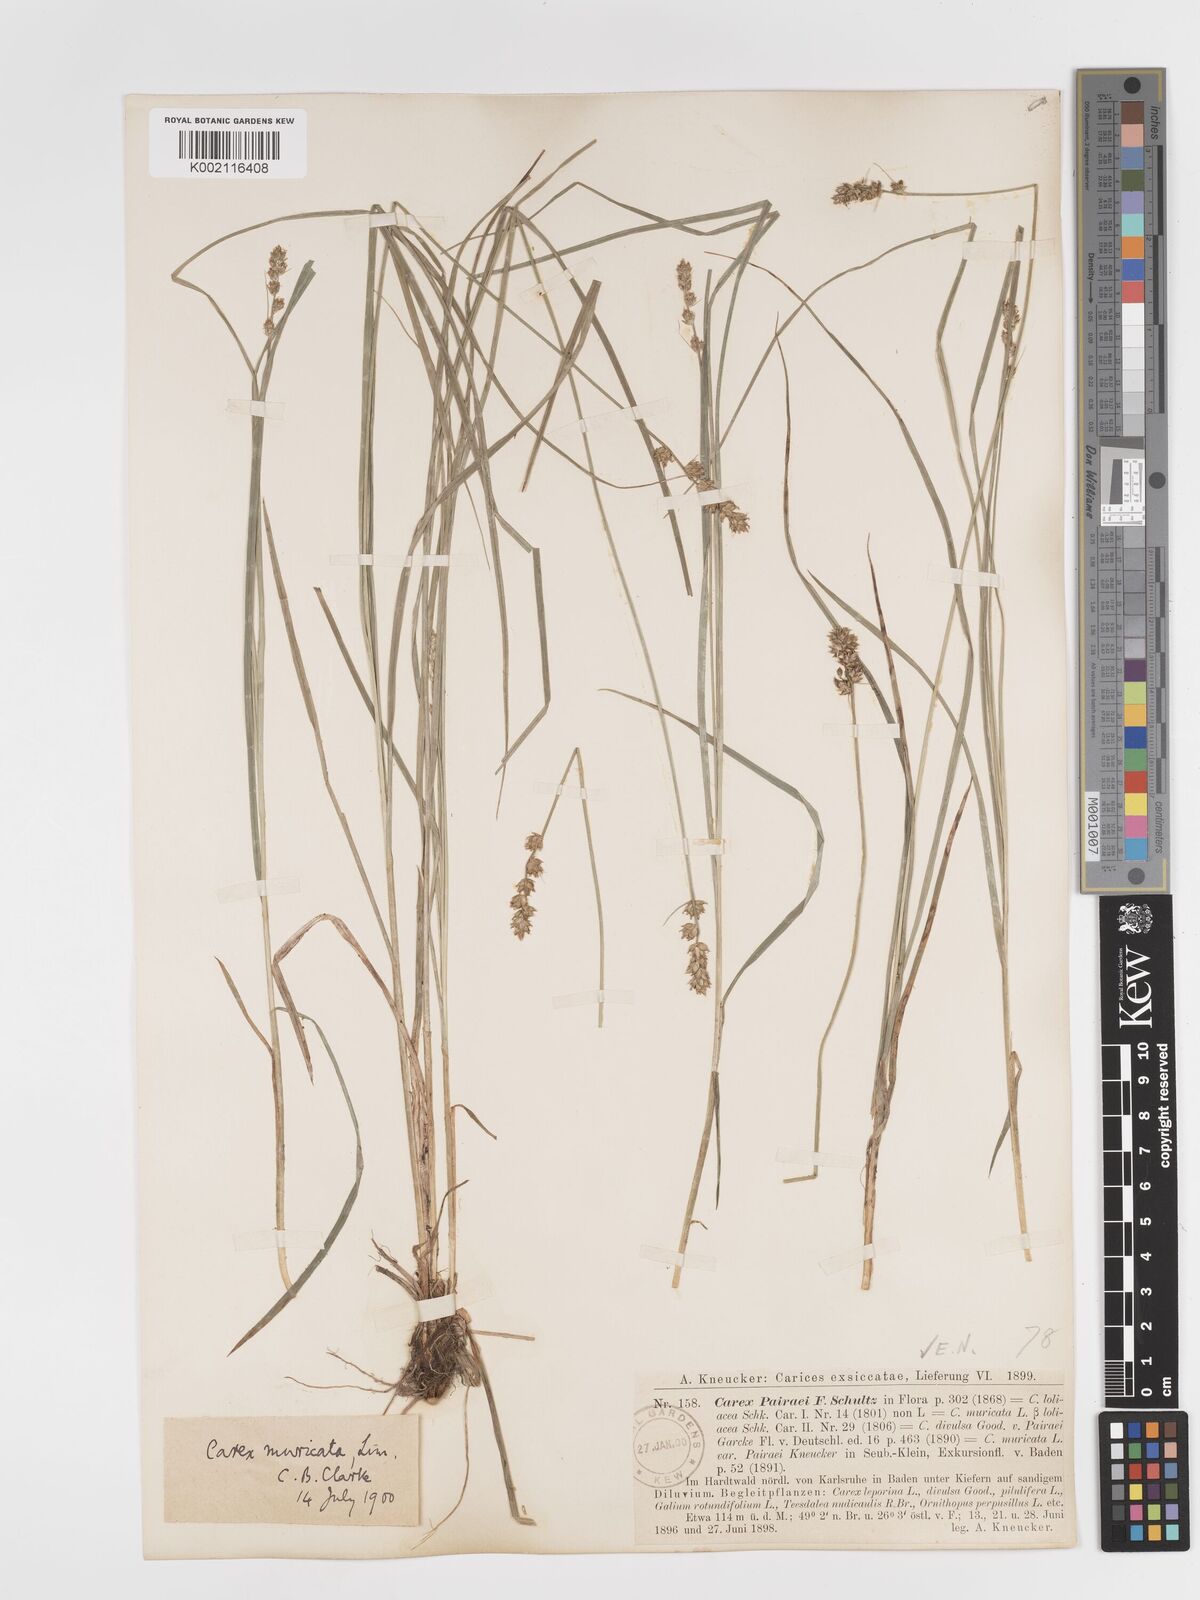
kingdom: Plantae
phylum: Tracheophyta
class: Liliopsida
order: Poales
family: Cyperaceae
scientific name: Cyperaceae
